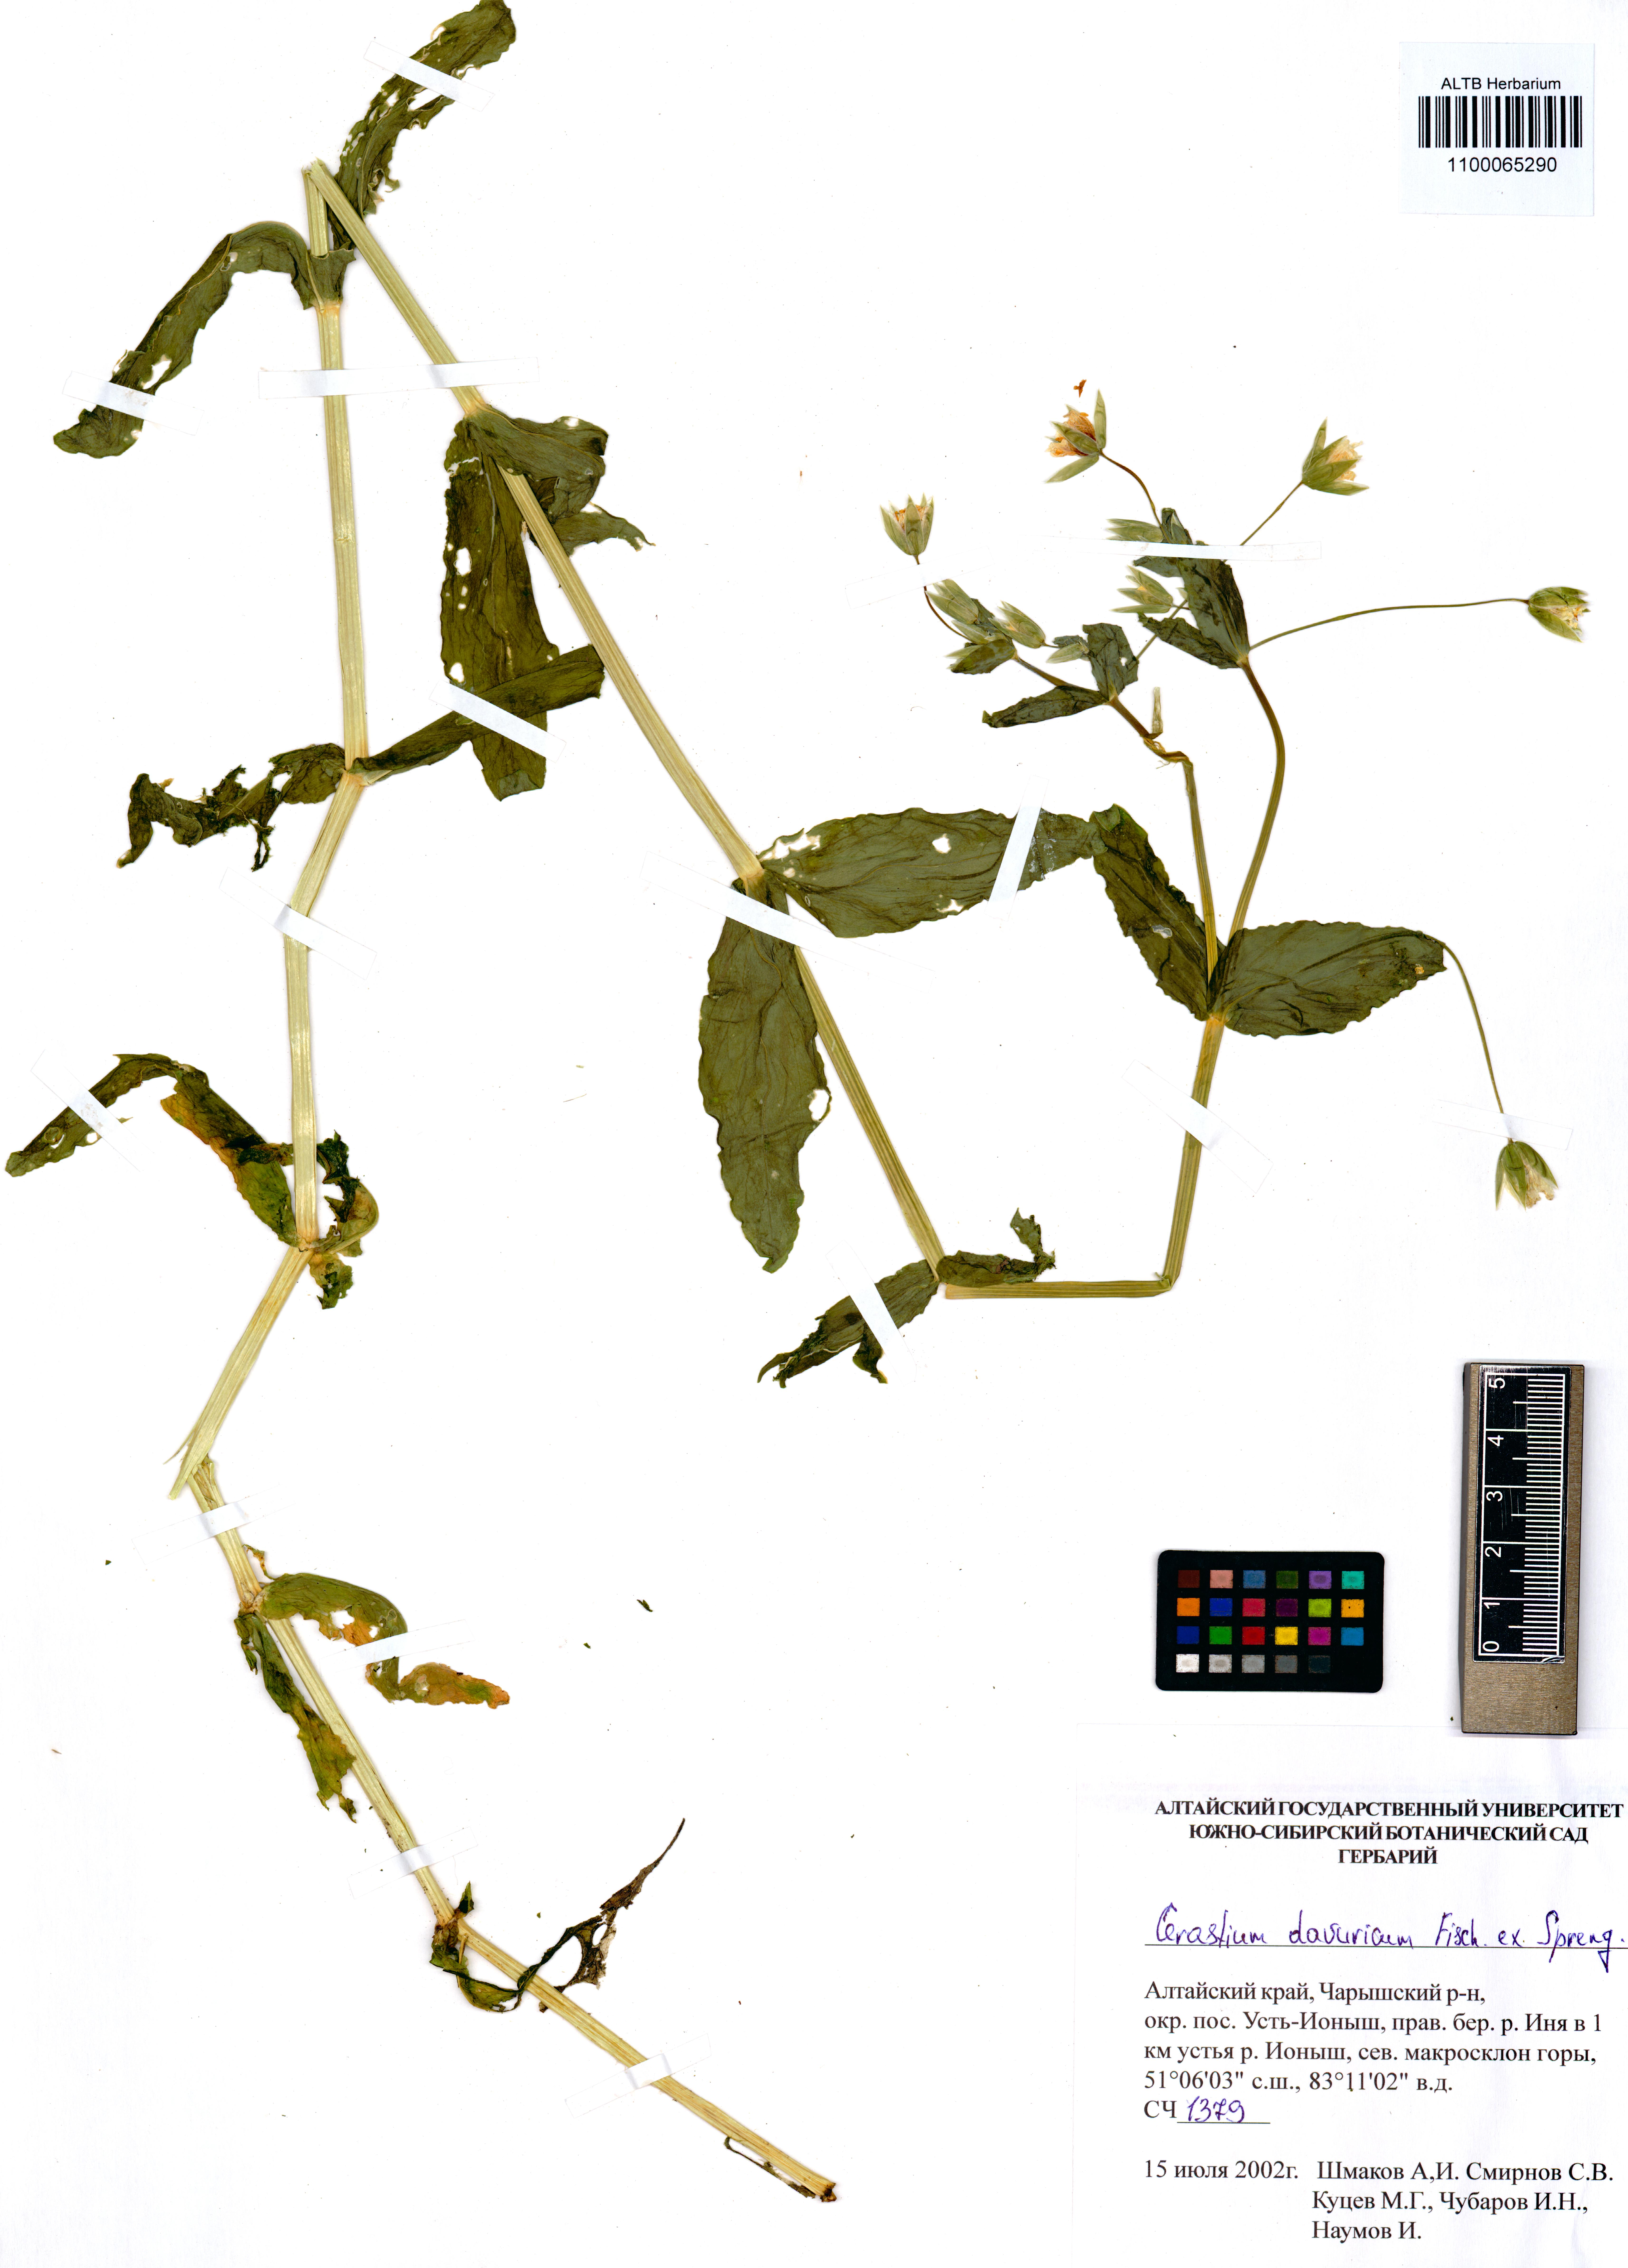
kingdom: Plantae
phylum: Tracheophyta
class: Magnoliopsida
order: Caryophyllales
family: Caryophyllaceae
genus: Dichodon
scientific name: Dichodon davuricum
